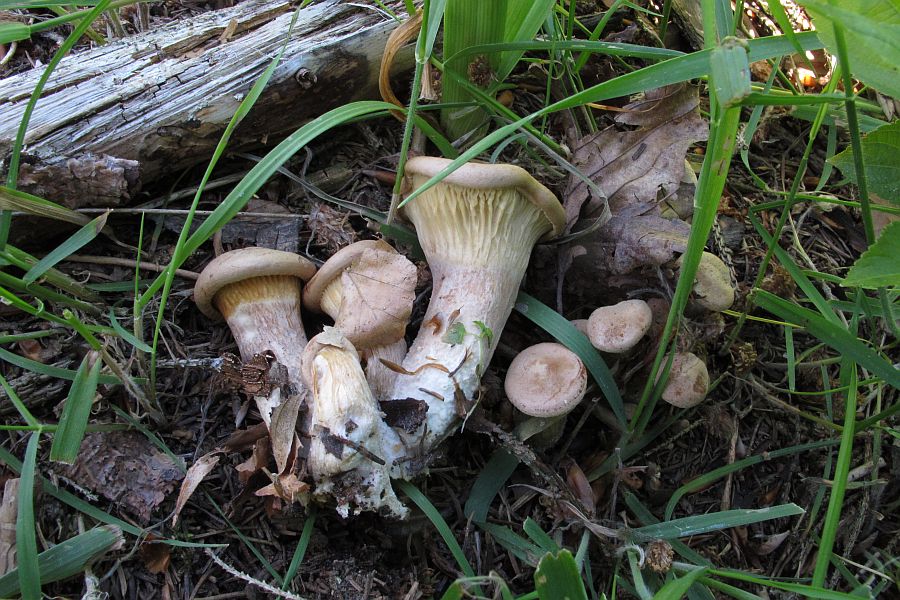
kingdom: Fungi
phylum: Basidiomycota
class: Agaricomycetes
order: Agaricales
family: Tricholomataceae
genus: Infundibulicybe
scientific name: Infundibulicybe gibba
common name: almindelig tragthat
